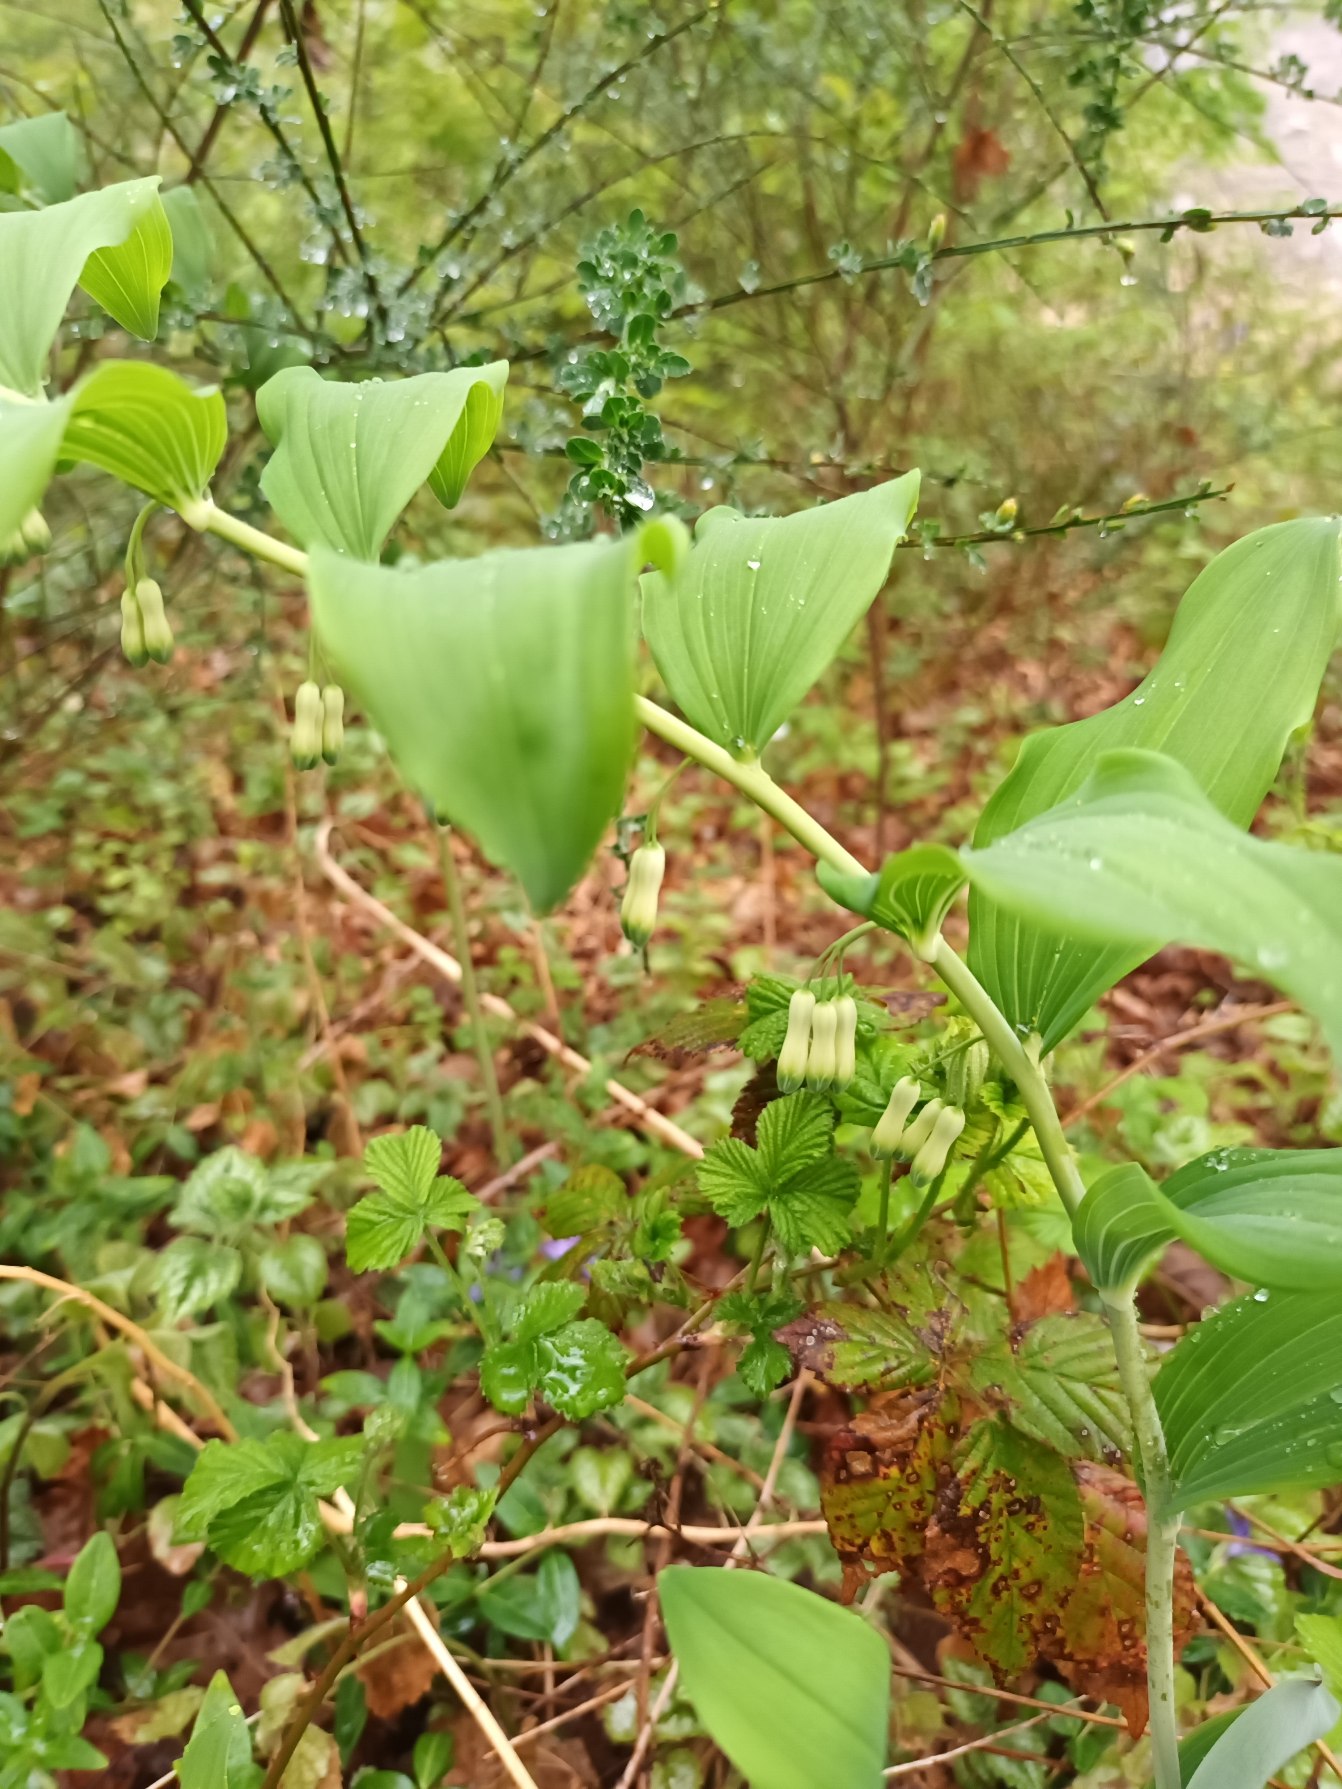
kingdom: Plantae
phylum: Tracheophyta
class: Liliopsida
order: Asparagales
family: Asparagaceae
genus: Polygonatum
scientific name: Polygonatum multiflorum
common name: Stor konval
